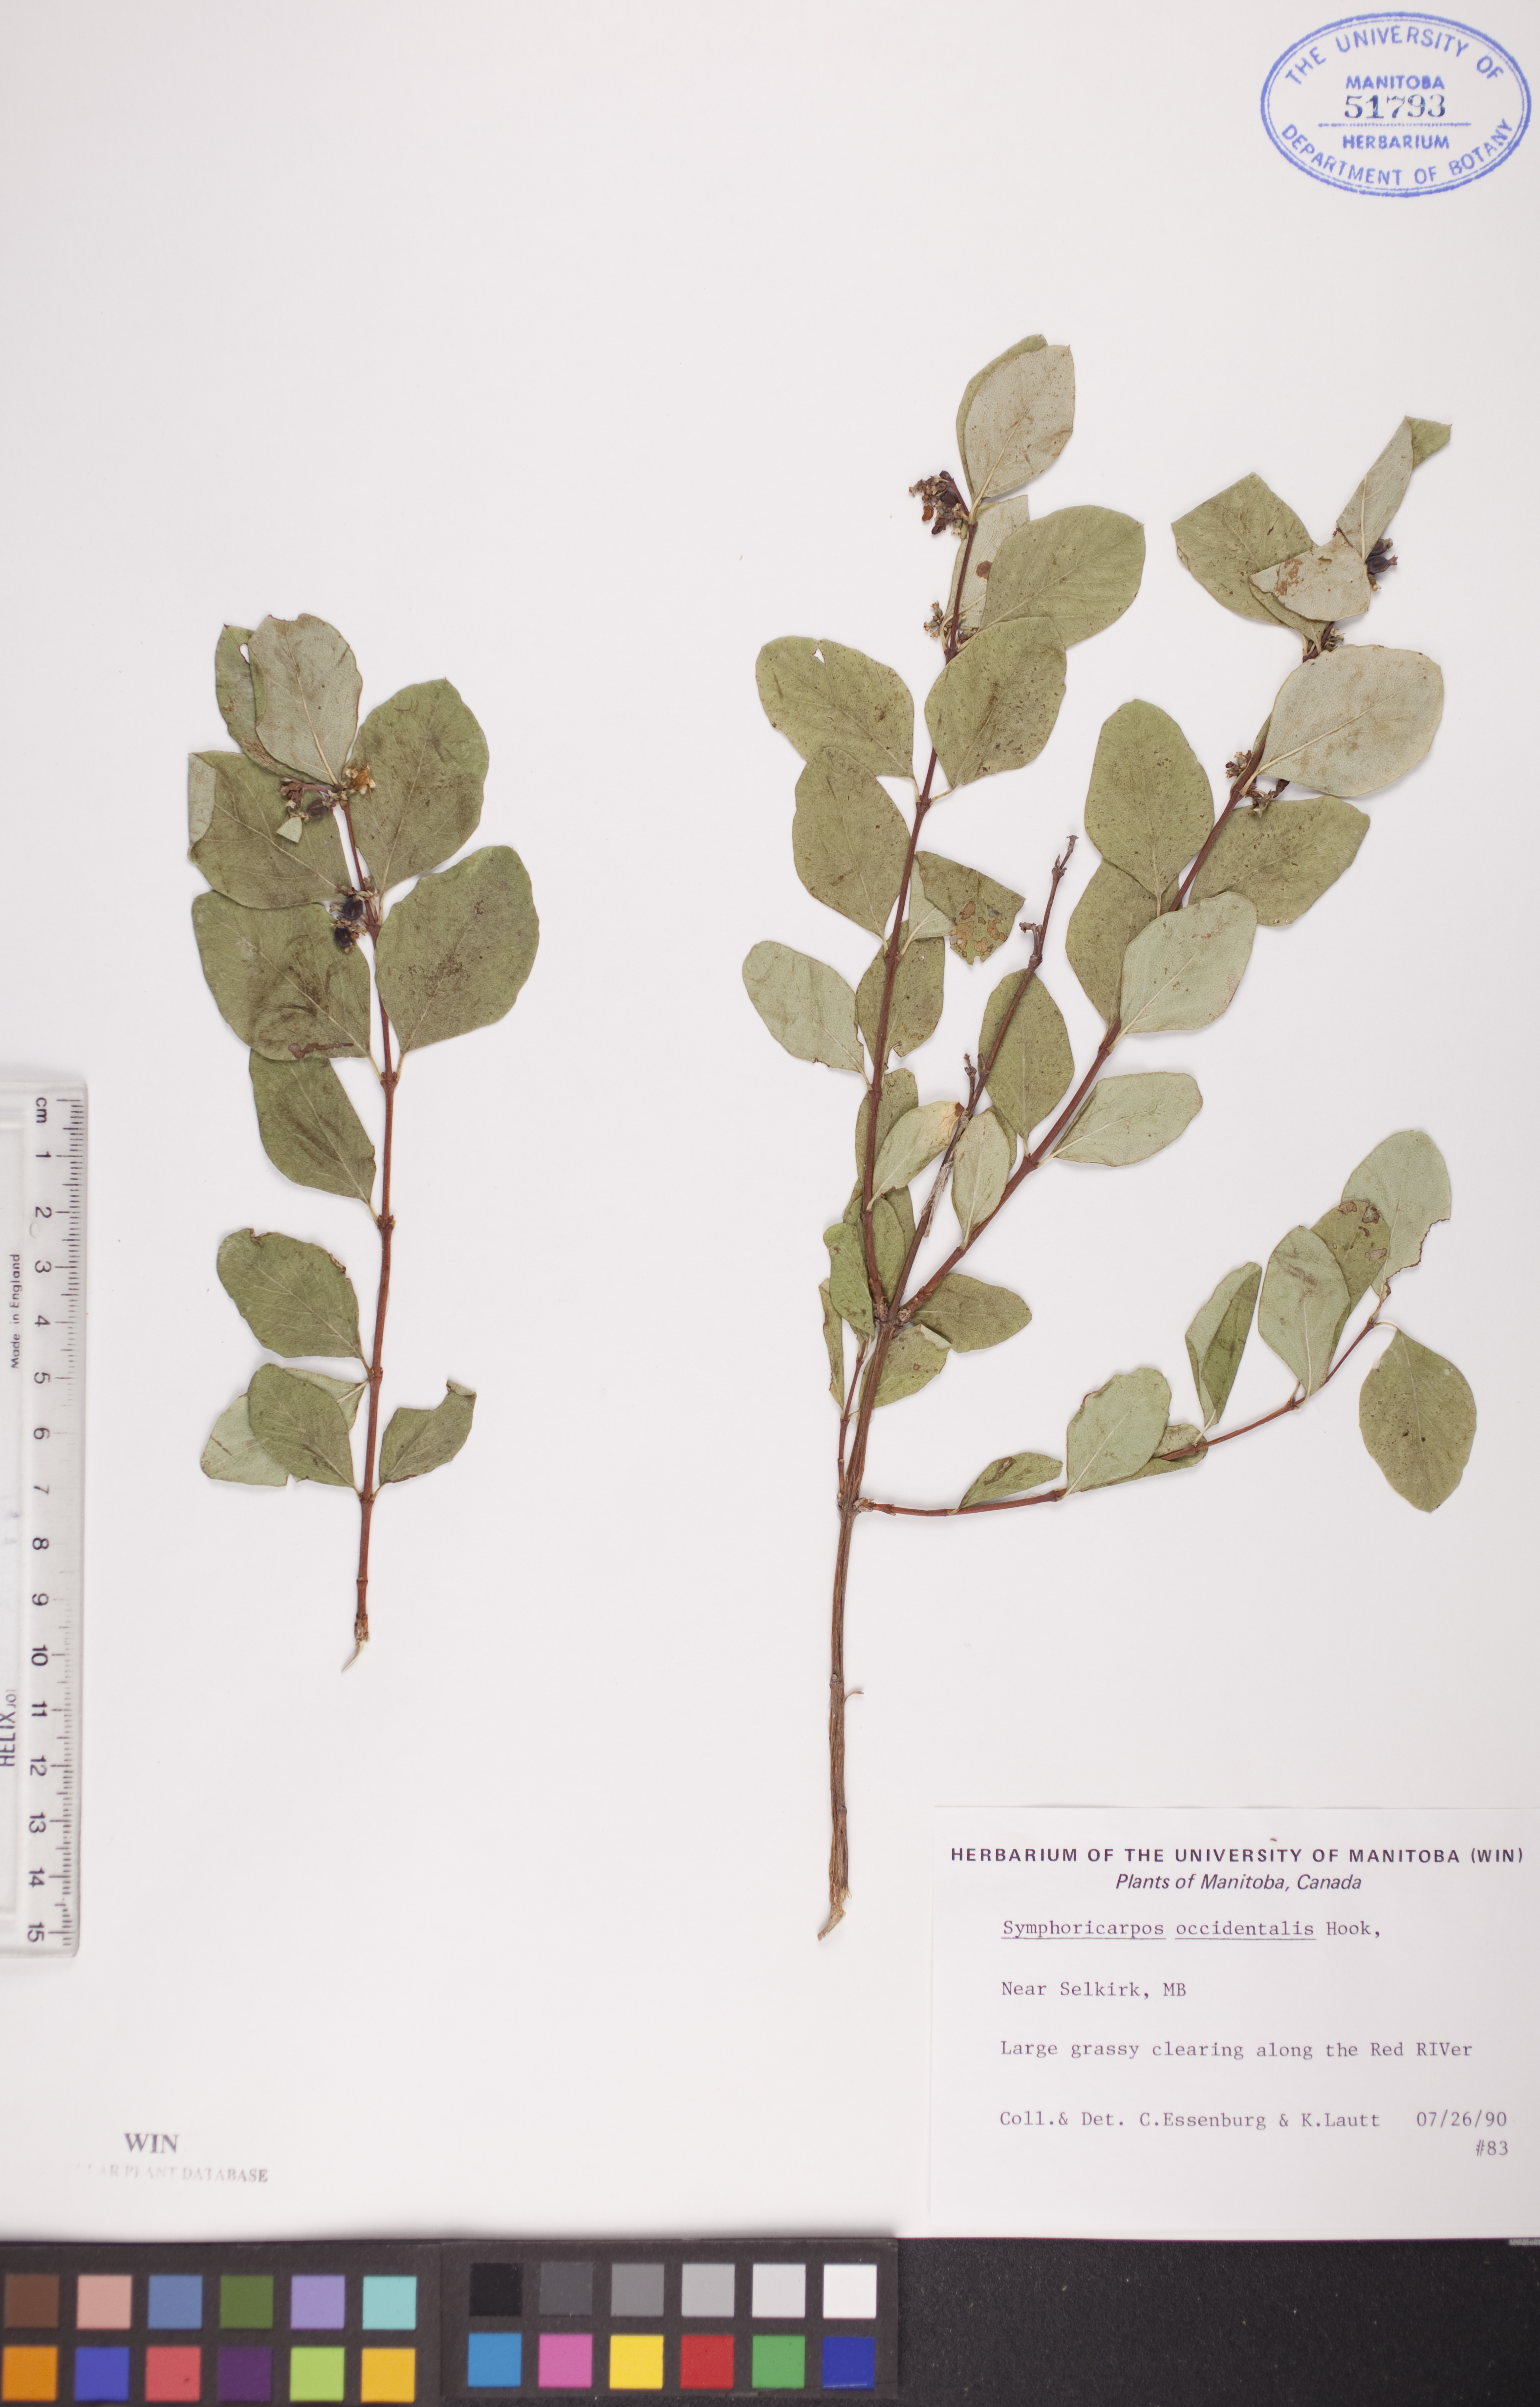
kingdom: Plantae
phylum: Tracheophyta
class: Magnoliopsida
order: Dipsacales
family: Caprifoliaceae
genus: Symphoricarpos
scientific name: Symphoricarpos occidentalis
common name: Wolfberry
